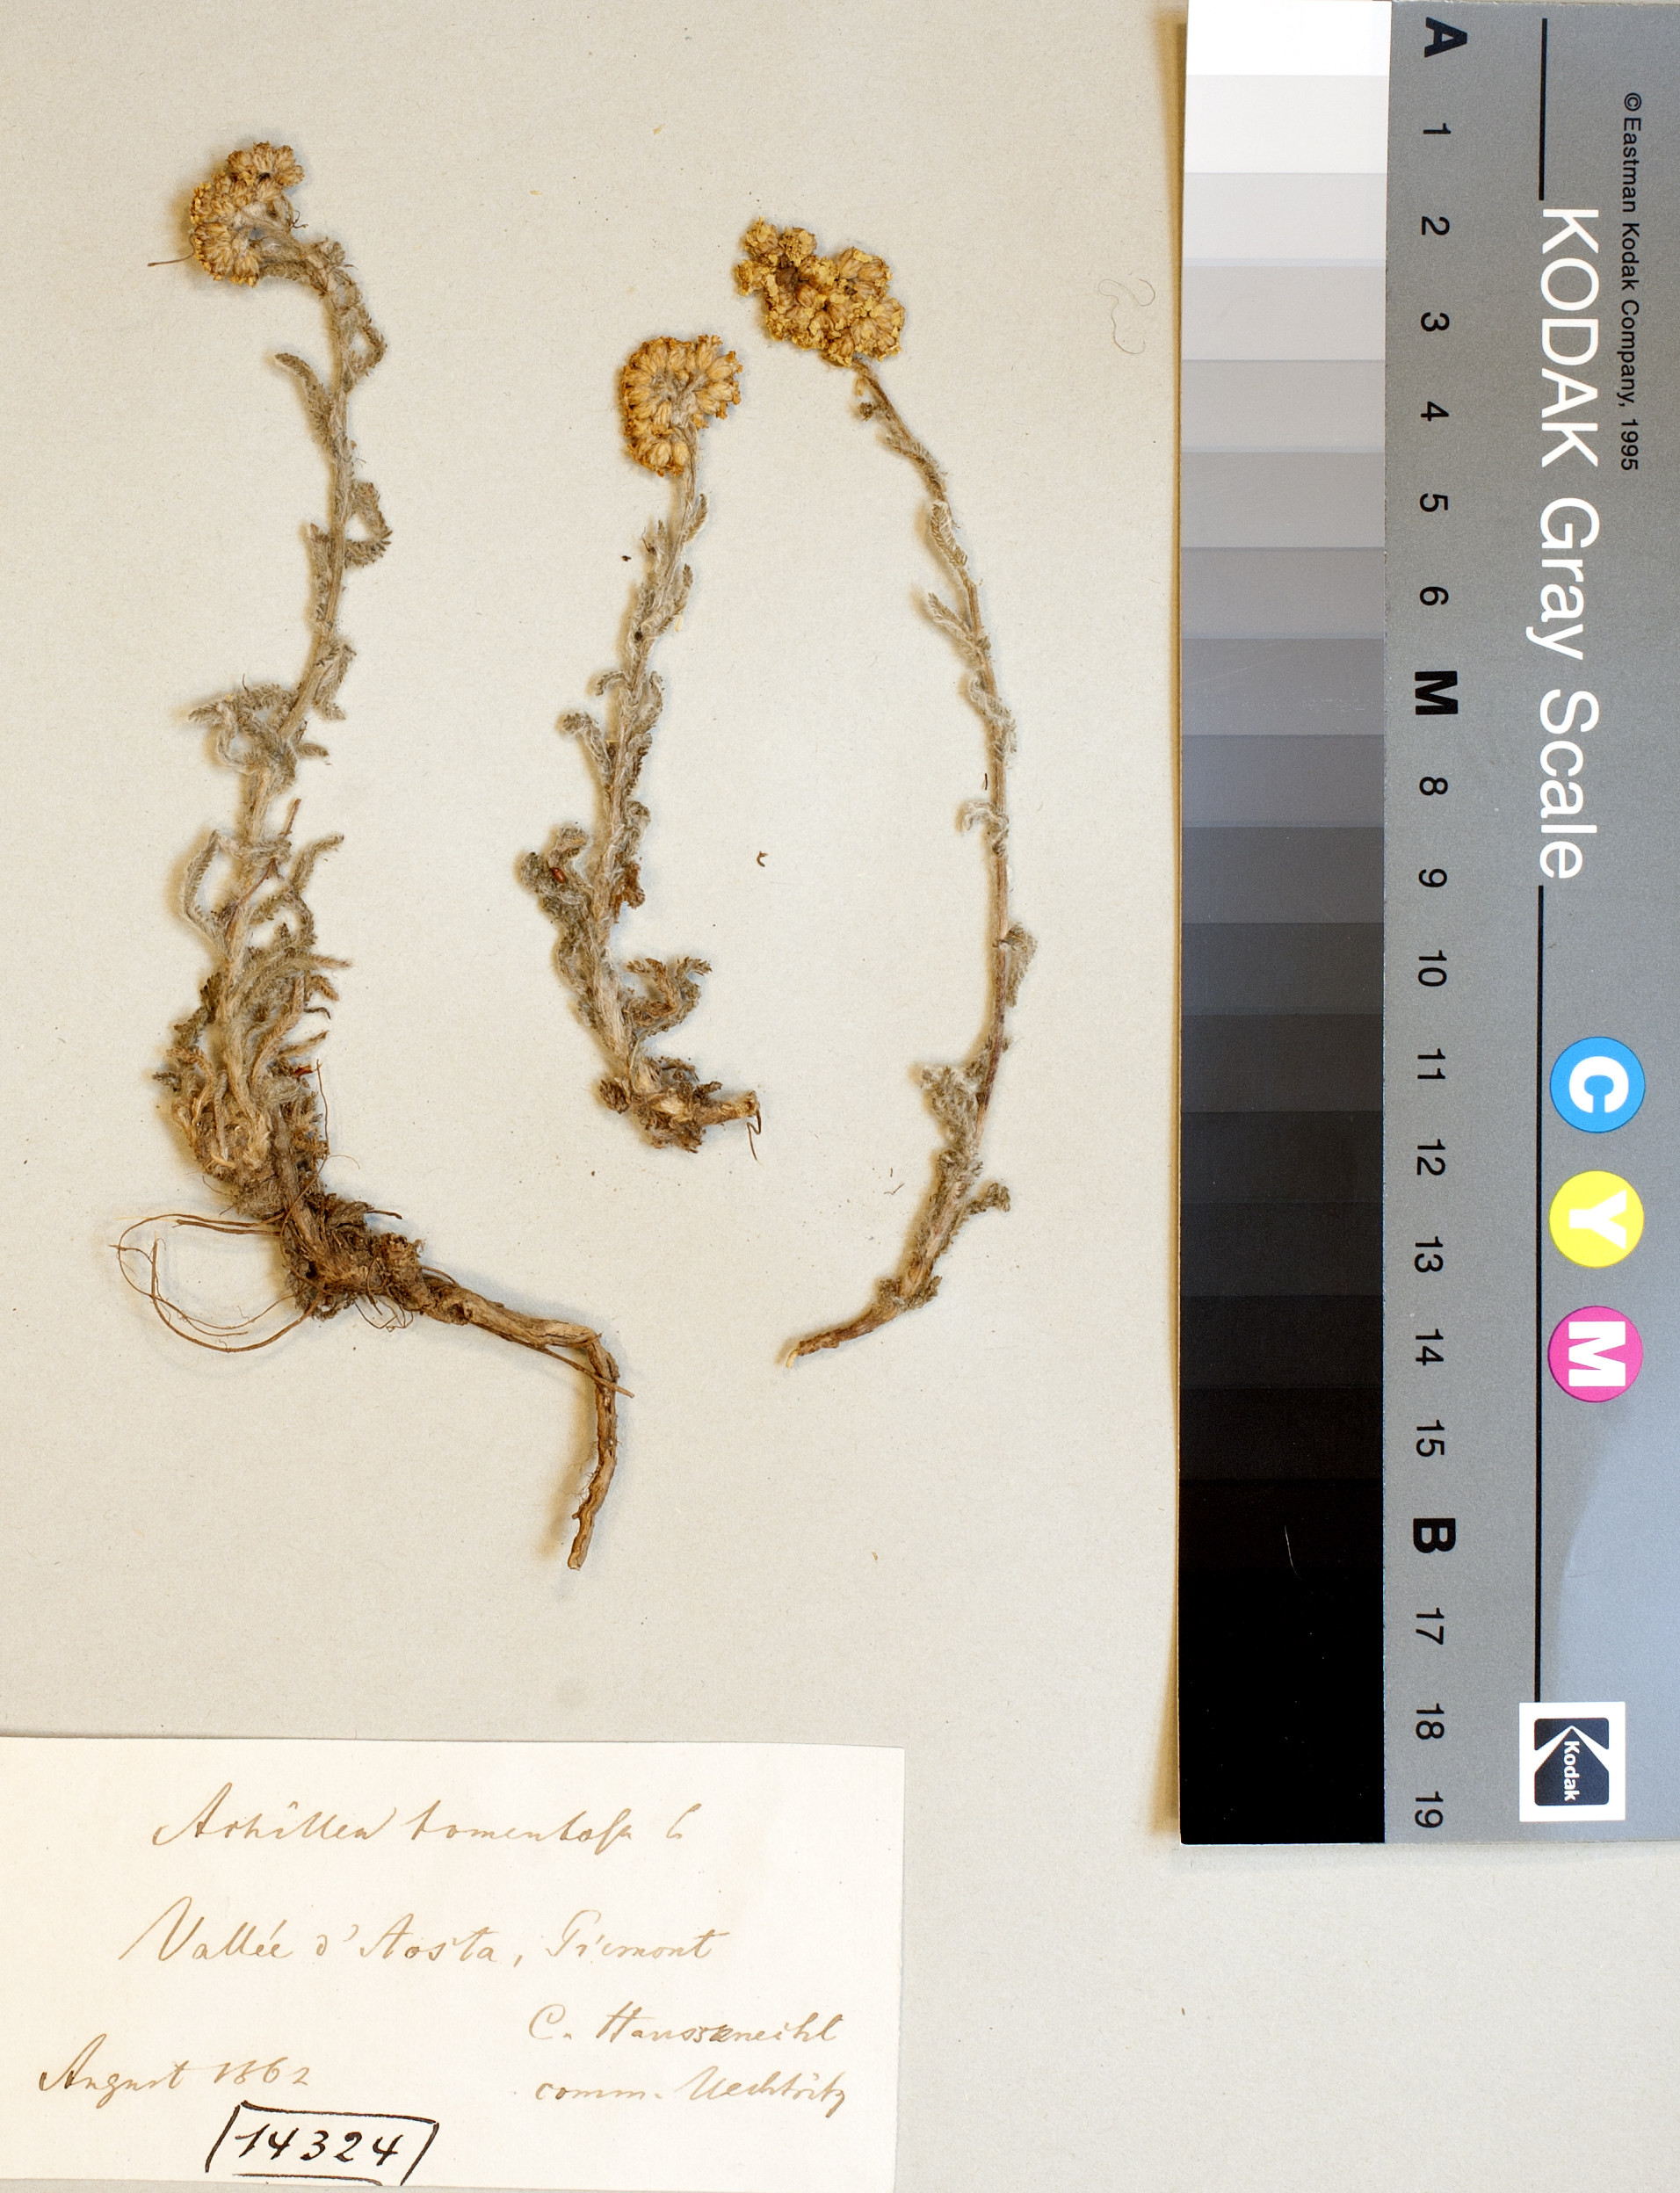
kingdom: Plantae
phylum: Tracheophyta
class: Magnoliopsida
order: Asterales
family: Asteraceae
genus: Achillea
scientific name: Achillea tomentosa
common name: Yellow milfoil
